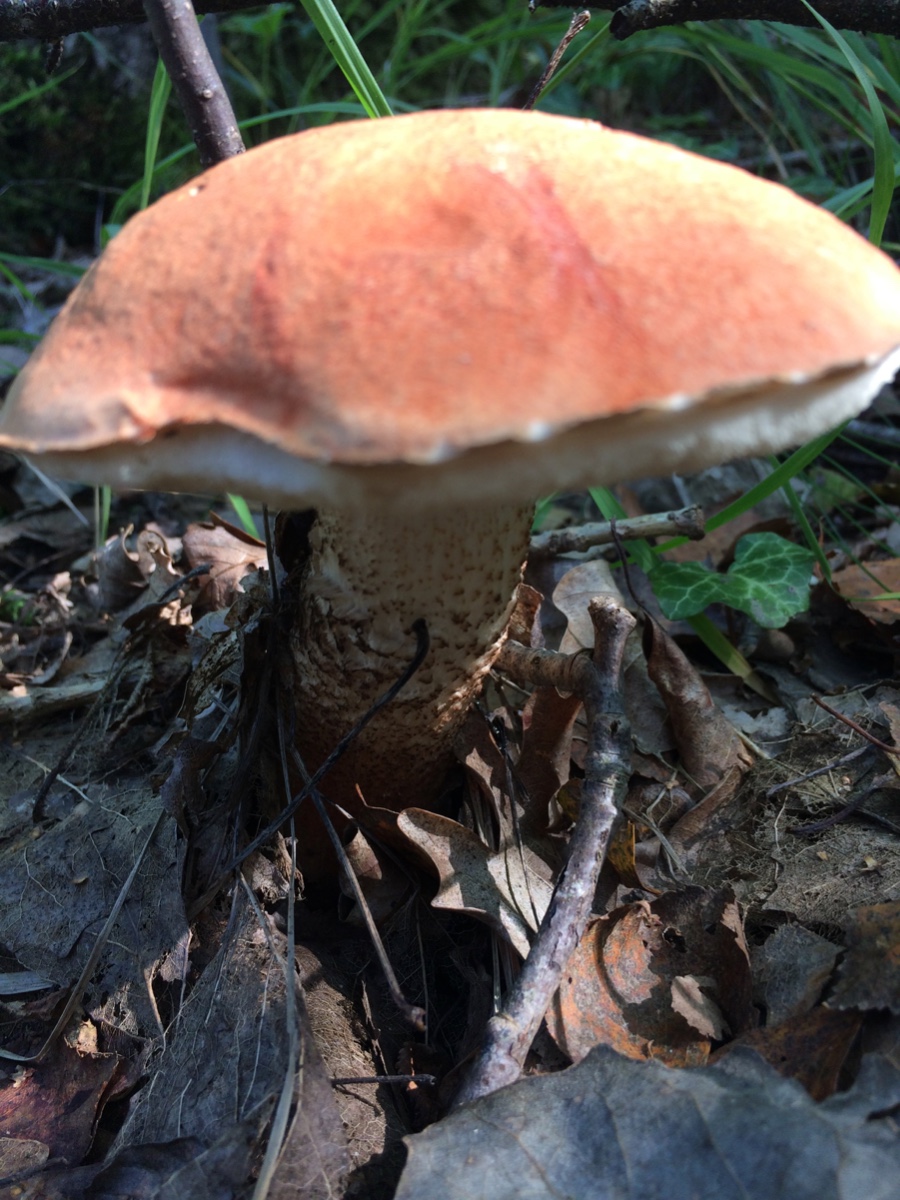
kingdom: Fungi
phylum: Basidiomycota
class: Agaricomycetes
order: Boletales
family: Boletaceae
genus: Leccinum
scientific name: Leccinum albostipitatum
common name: aspe-skælrørhat
